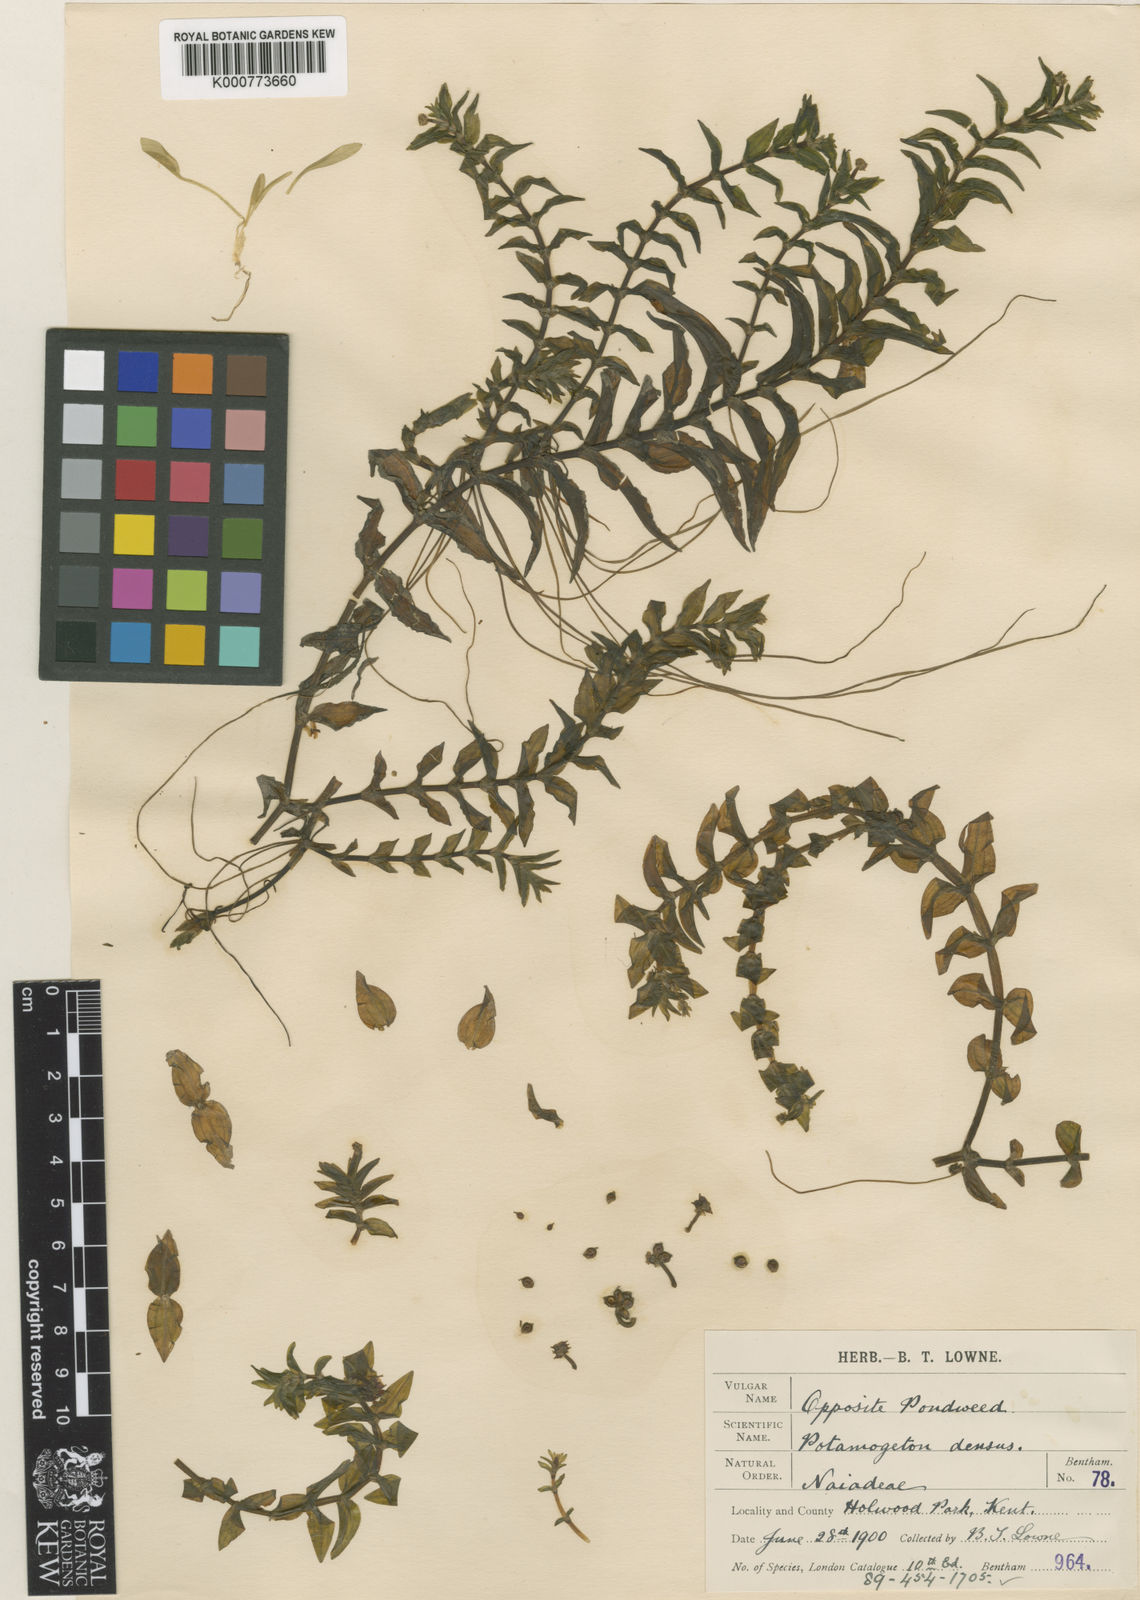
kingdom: Plantae
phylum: Tracheophyta
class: Liliopsida
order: Alismatales
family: Potamogetonaceae
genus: Groenlandia
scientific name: Groenlandia densa
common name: Opposite-leaved pondweed
